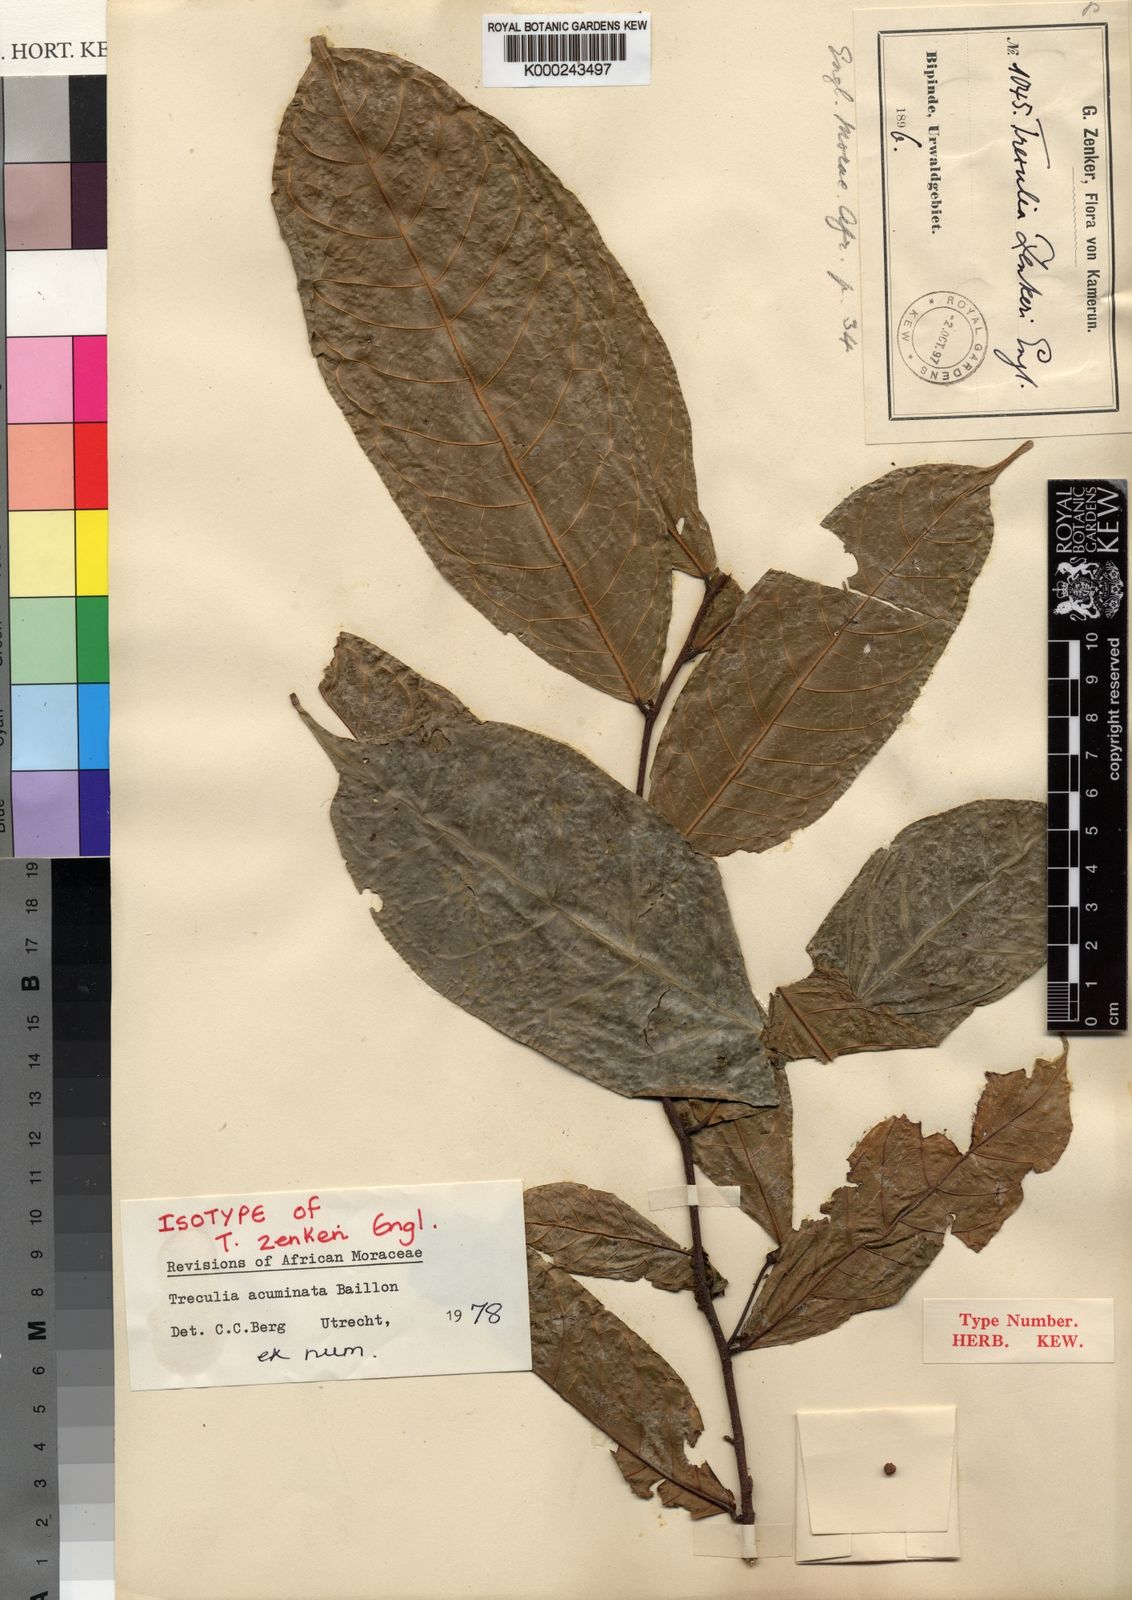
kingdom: Plantae
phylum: Tracheophyta
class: Magnoliopsida
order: Rosales
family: Moraceae
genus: Treculia
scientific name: Treculia acuminata
